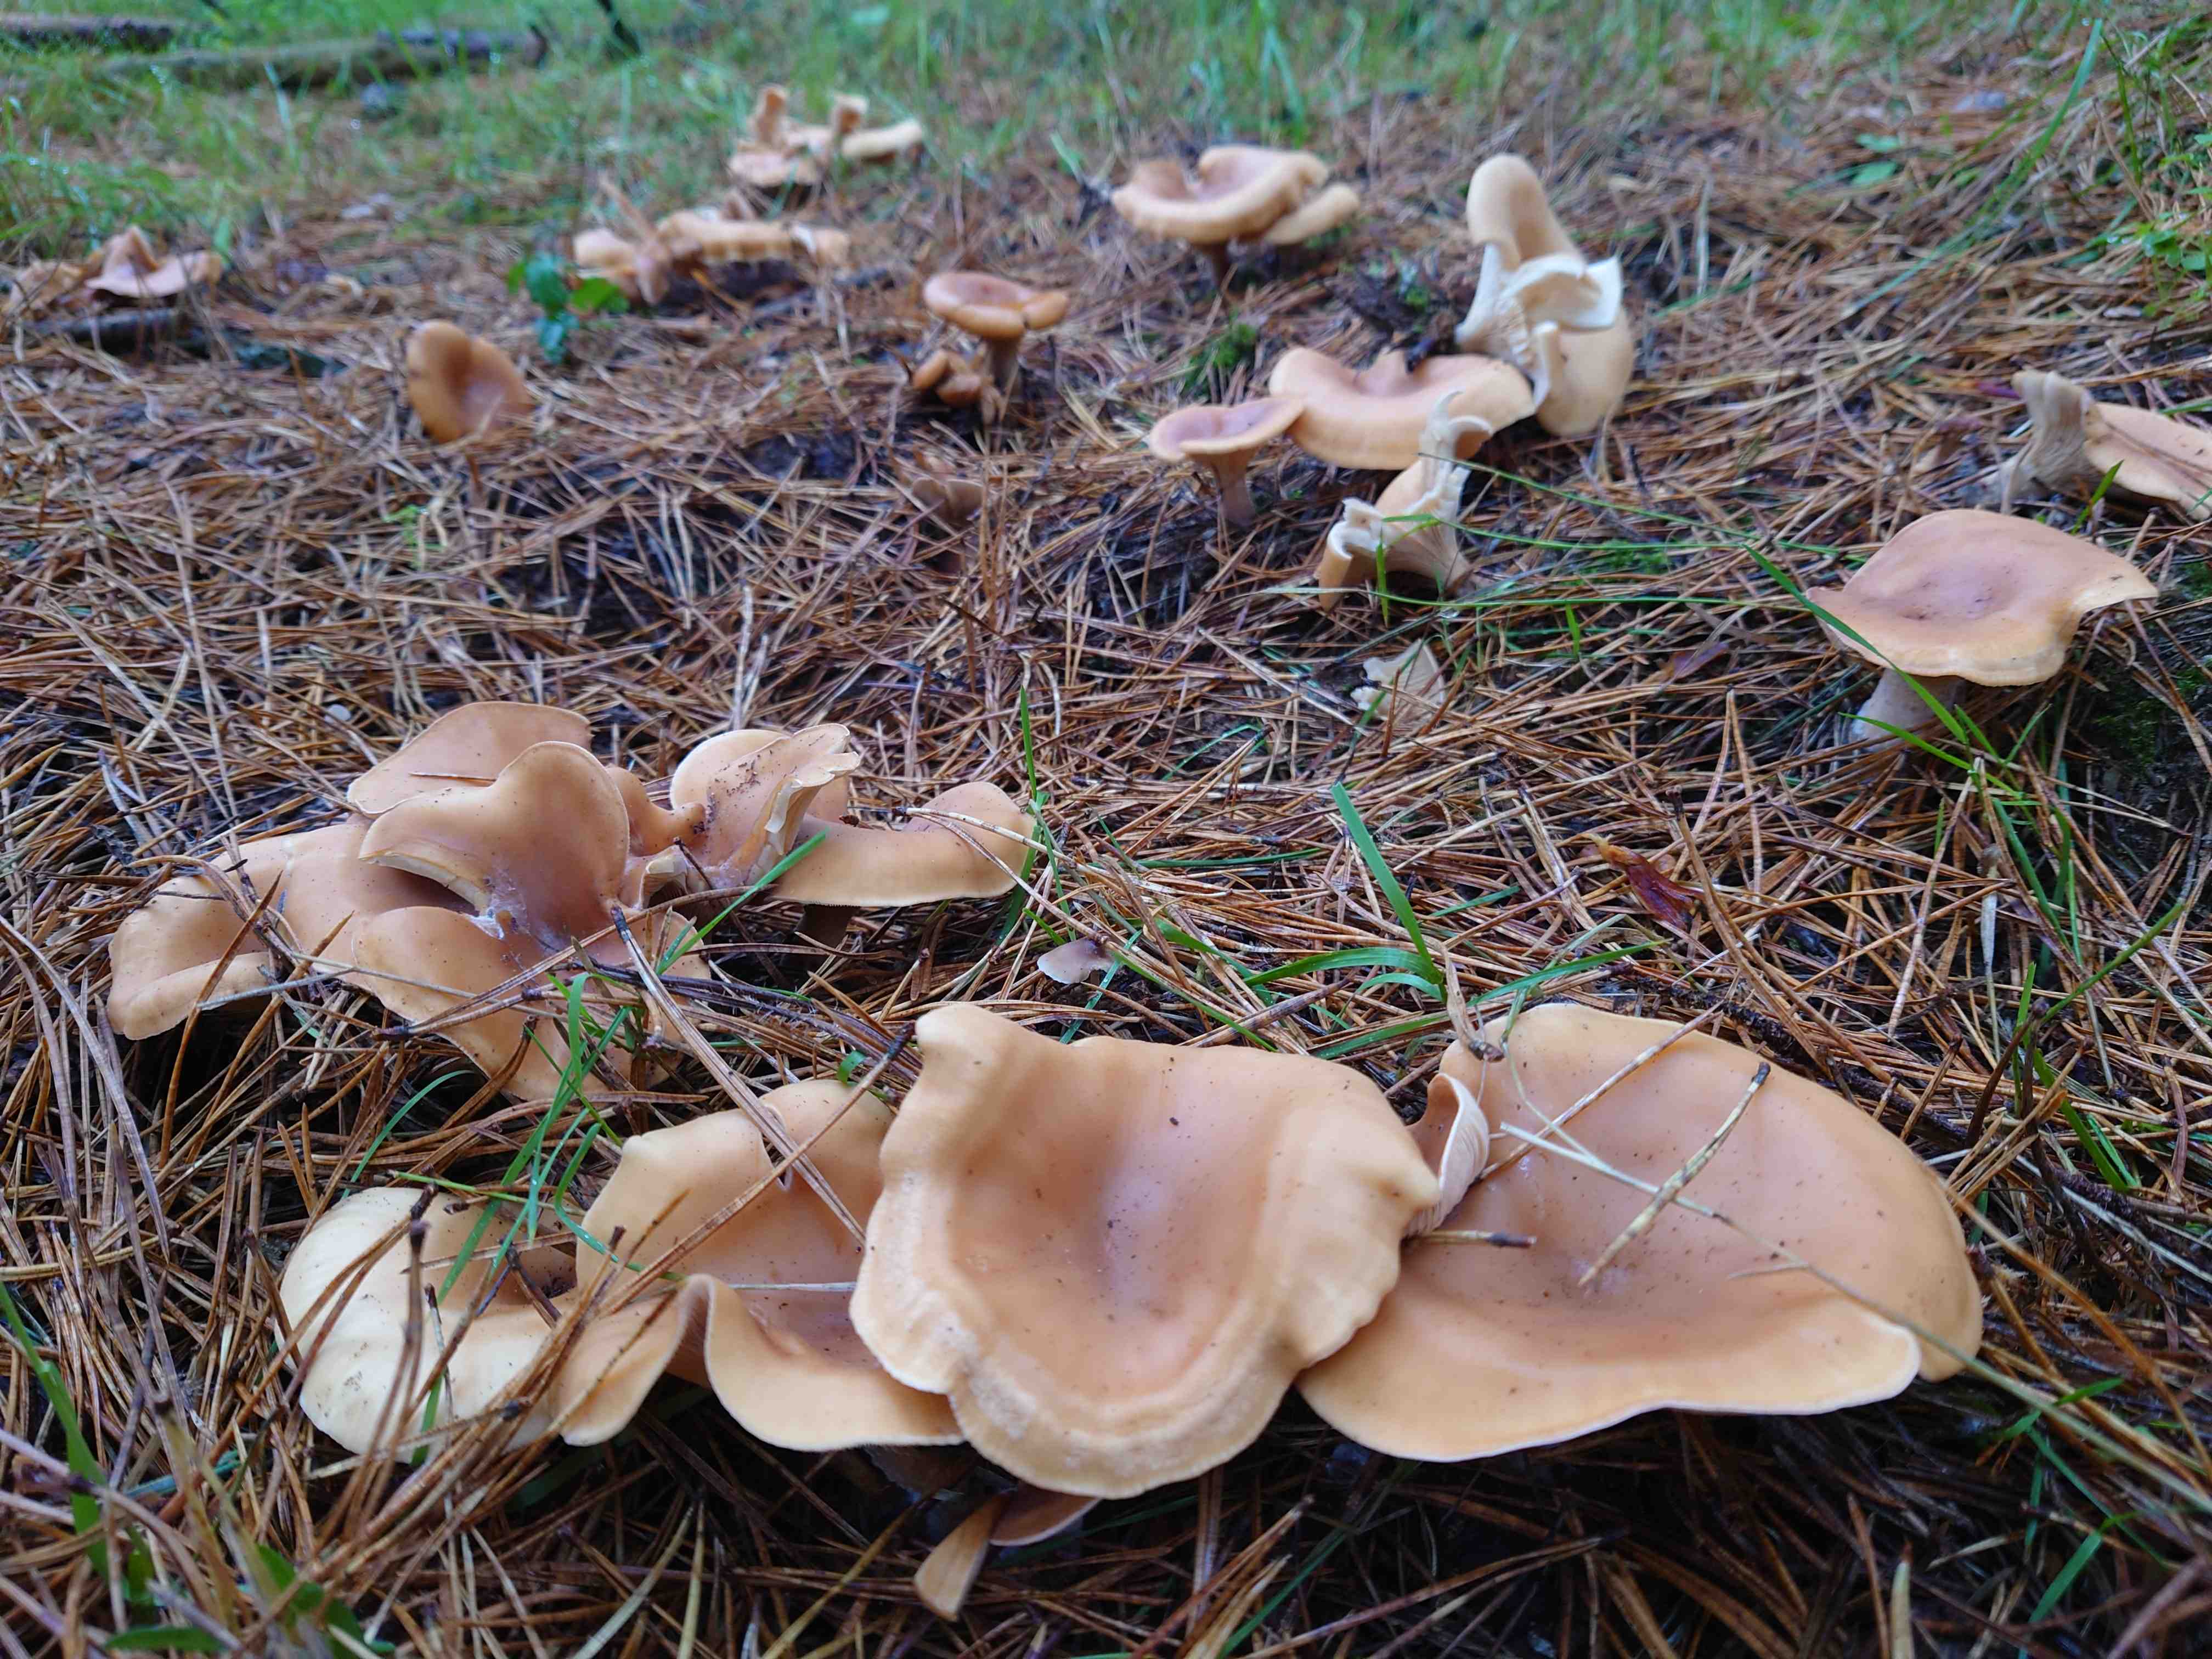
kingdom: Fungi
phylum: Basidiomycota
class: Agaricomycetes
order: Agaricales
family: Tricholomataceae
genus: Paralepista
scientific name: Paralepista flaccida
